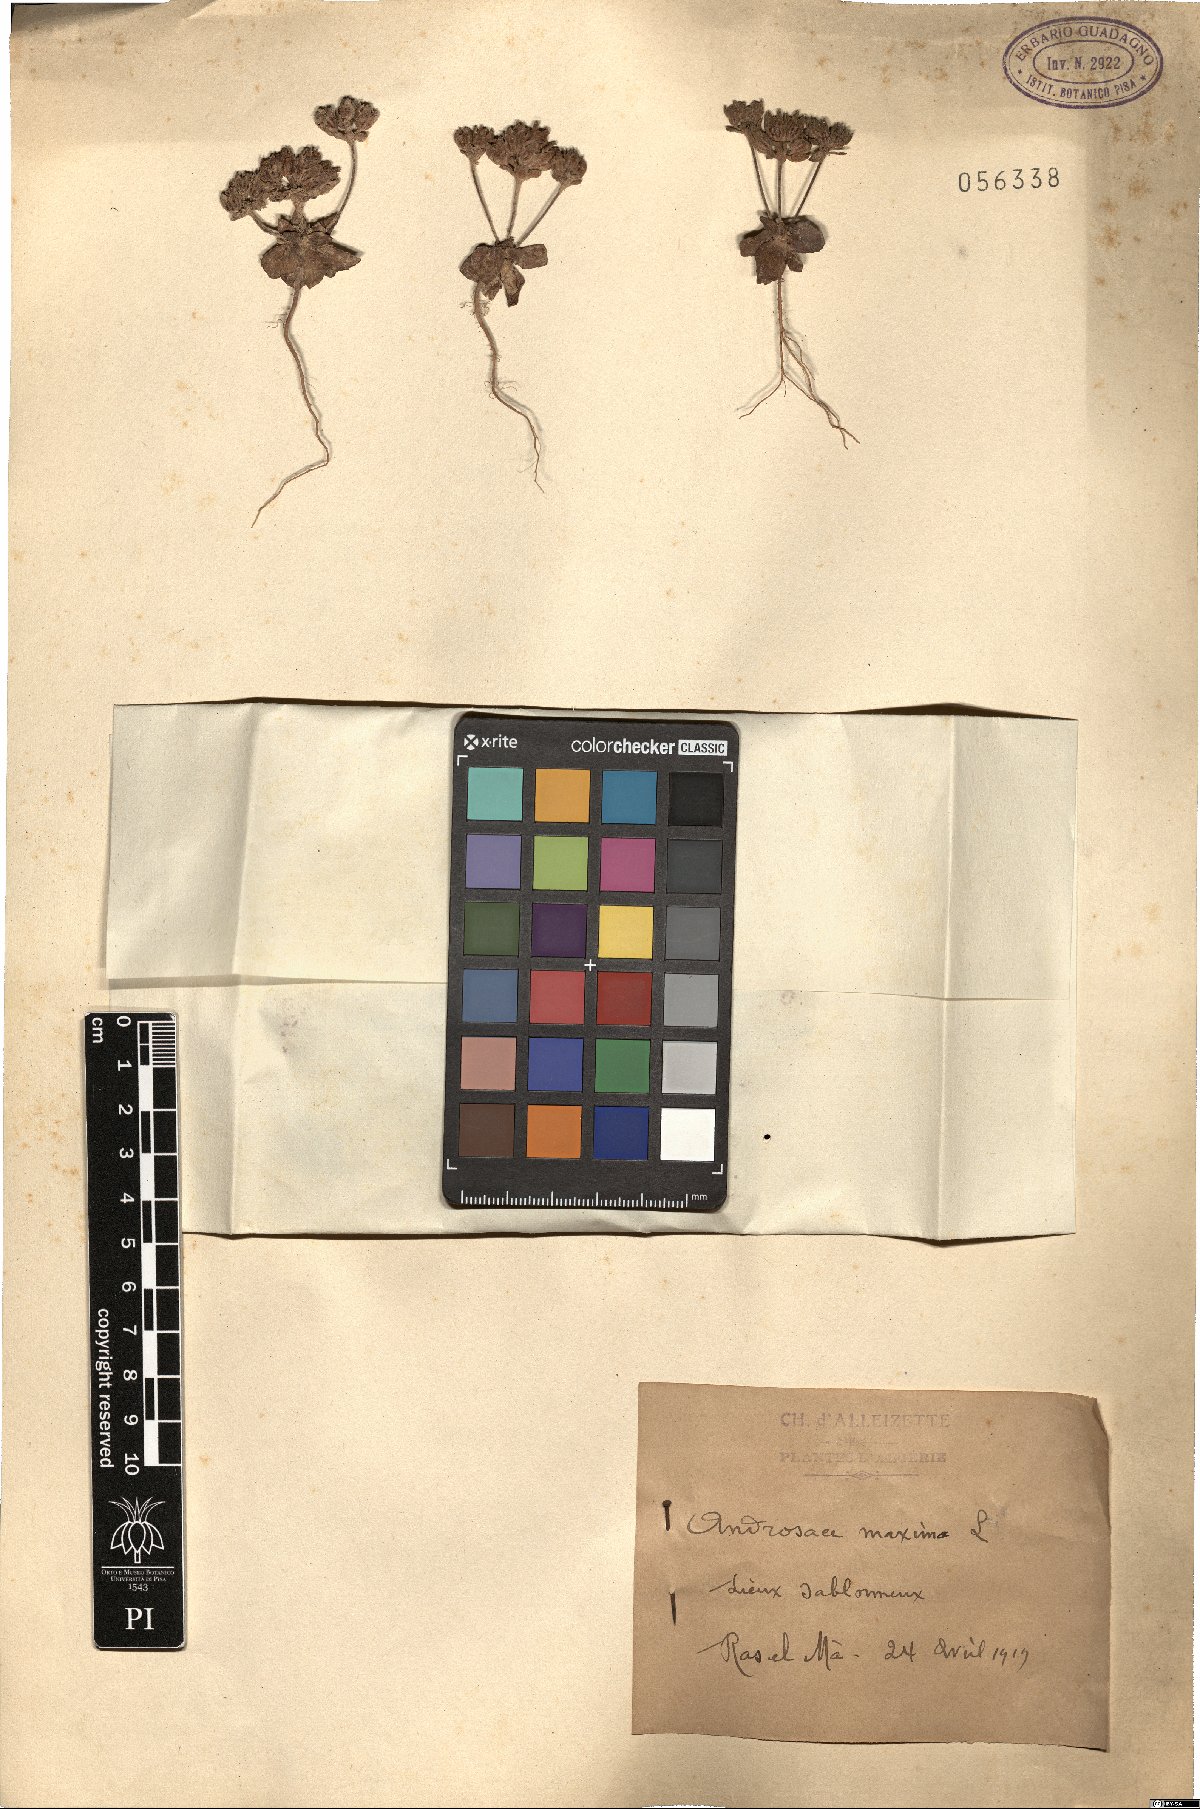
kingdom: Plantae
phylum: Tracheophyta
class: Magnoliopsida
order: Ericales
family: Primulaceae
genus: Androsace
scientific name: Androsace maxima
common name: Annual androsace
